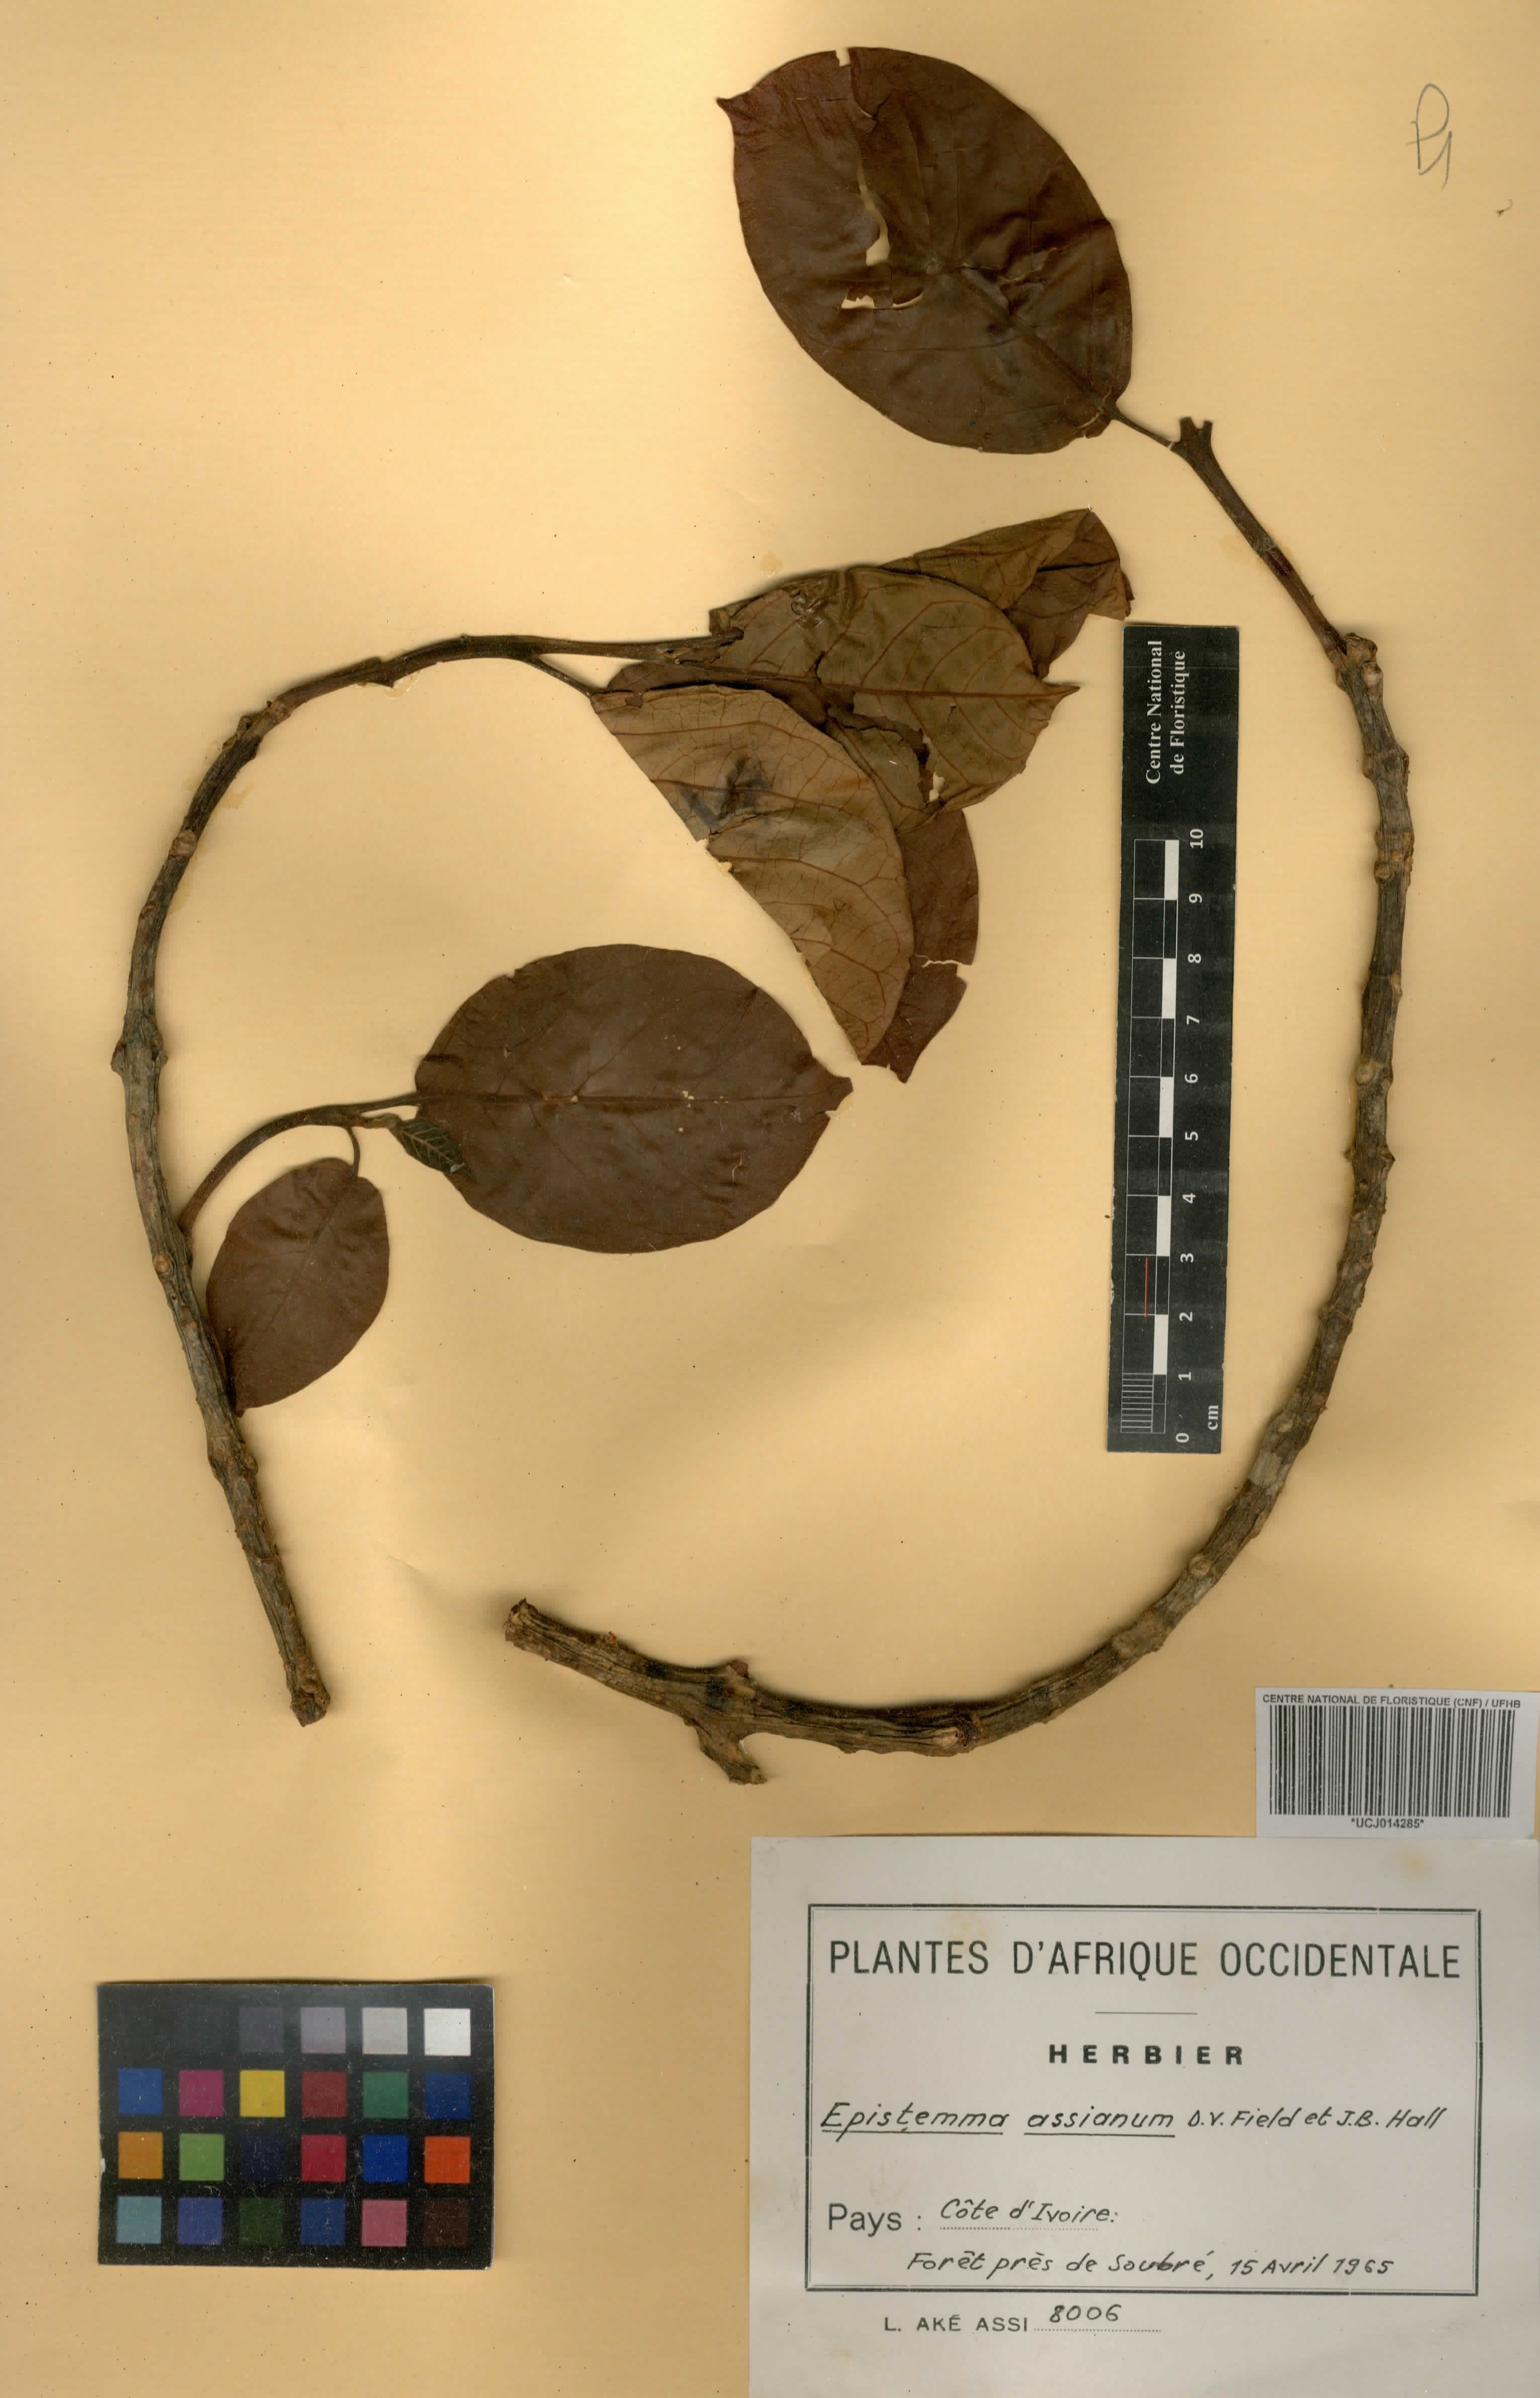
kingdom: Plantae
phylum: Tracheophyta
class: Magnoliopsida
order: Gentianales
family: Apocynaceae
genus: Epistemma
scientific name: Epistemma assianum
